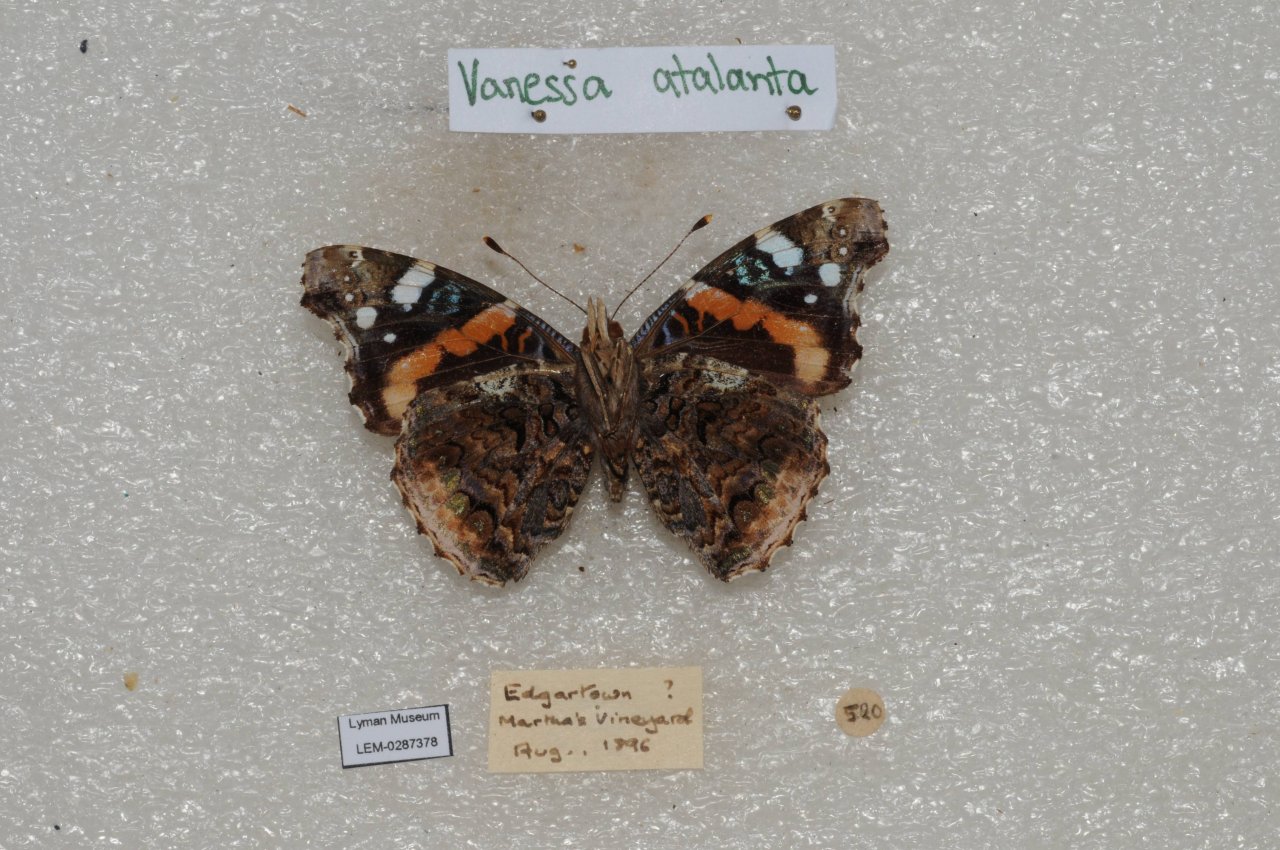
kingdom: Animalia
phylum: Arthropoda
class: Insecta
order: Lepidoptera
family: Nymphalidae
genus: Vanessa
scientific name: Vanessa atalanta
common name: Red Admiral
